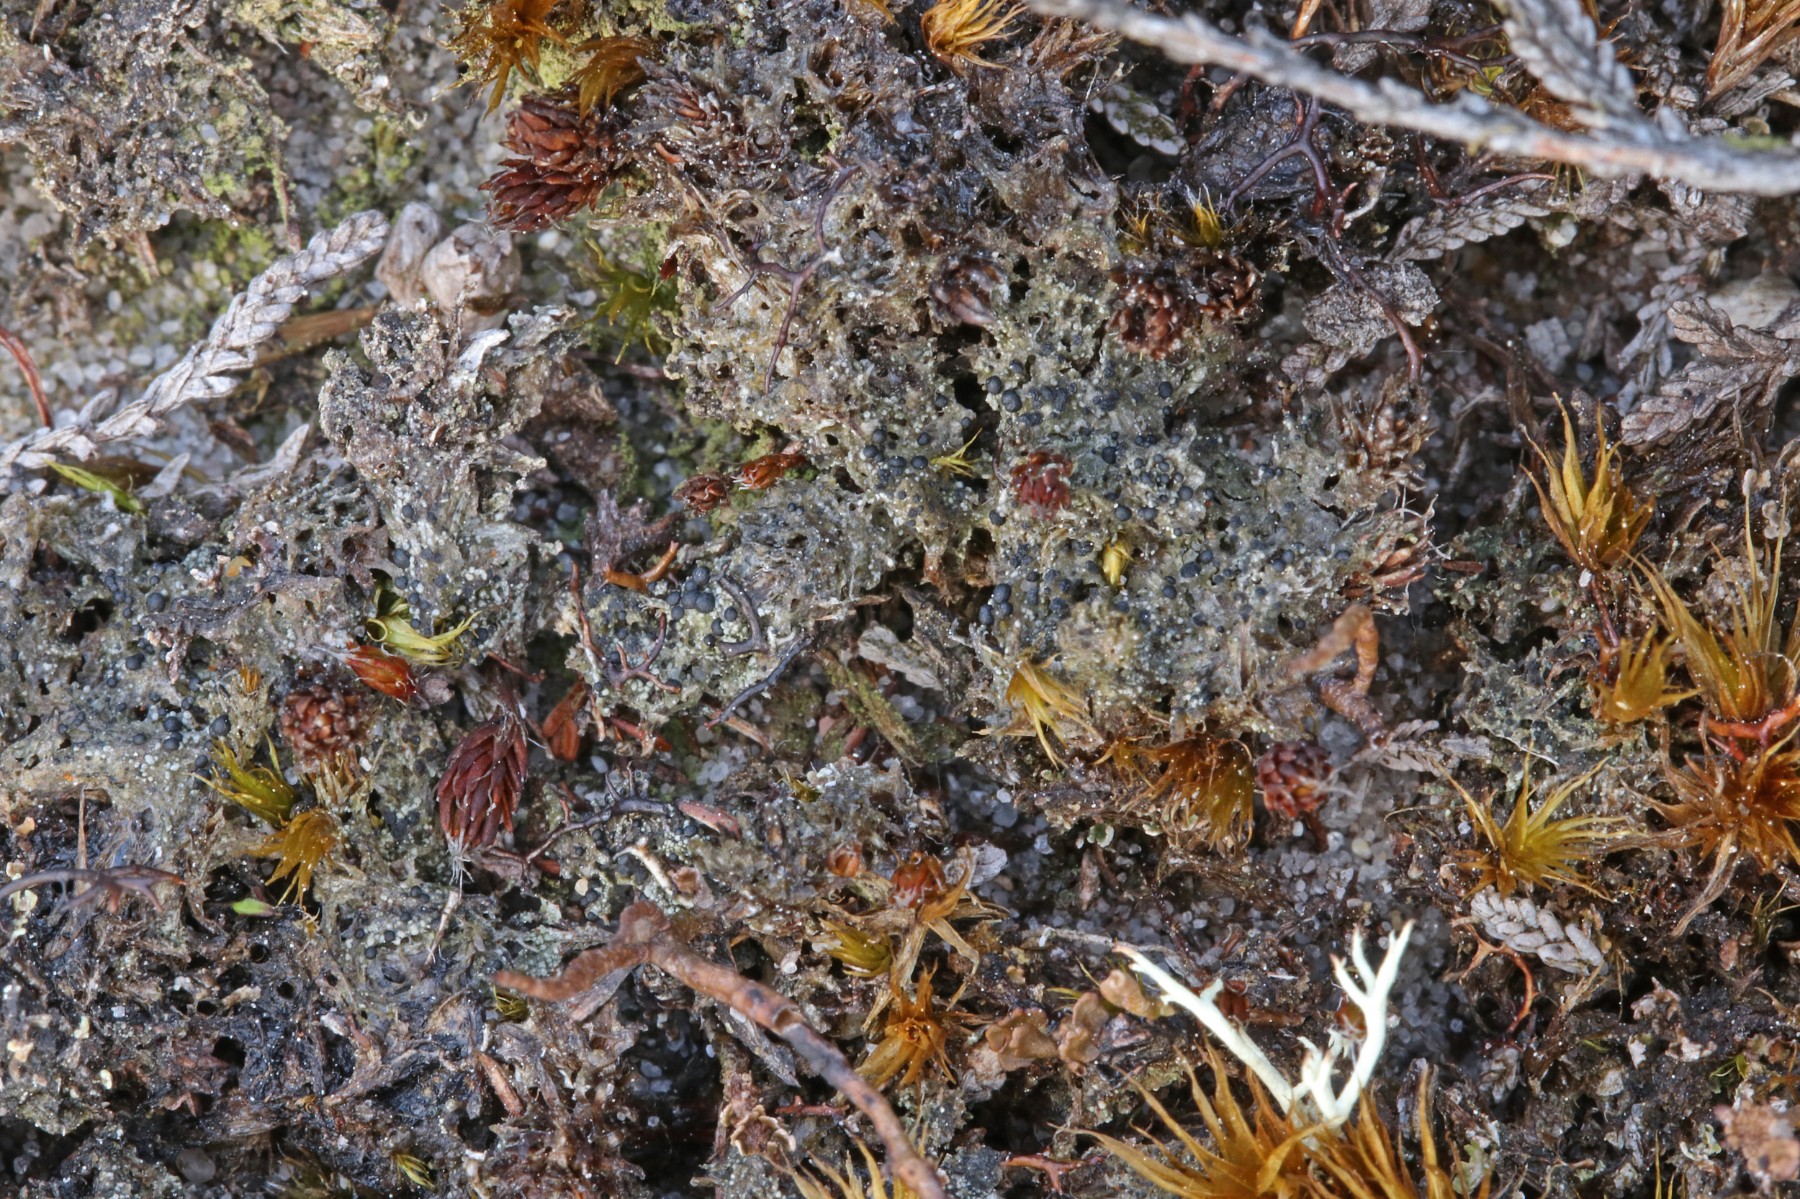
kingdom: Fungi
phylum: Ascomycota
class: Lecanoromycetes
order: Lecanorales
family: Byssolomataceae
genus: Micarea
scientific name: Micarea lignaria
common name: tørve-knaplav
